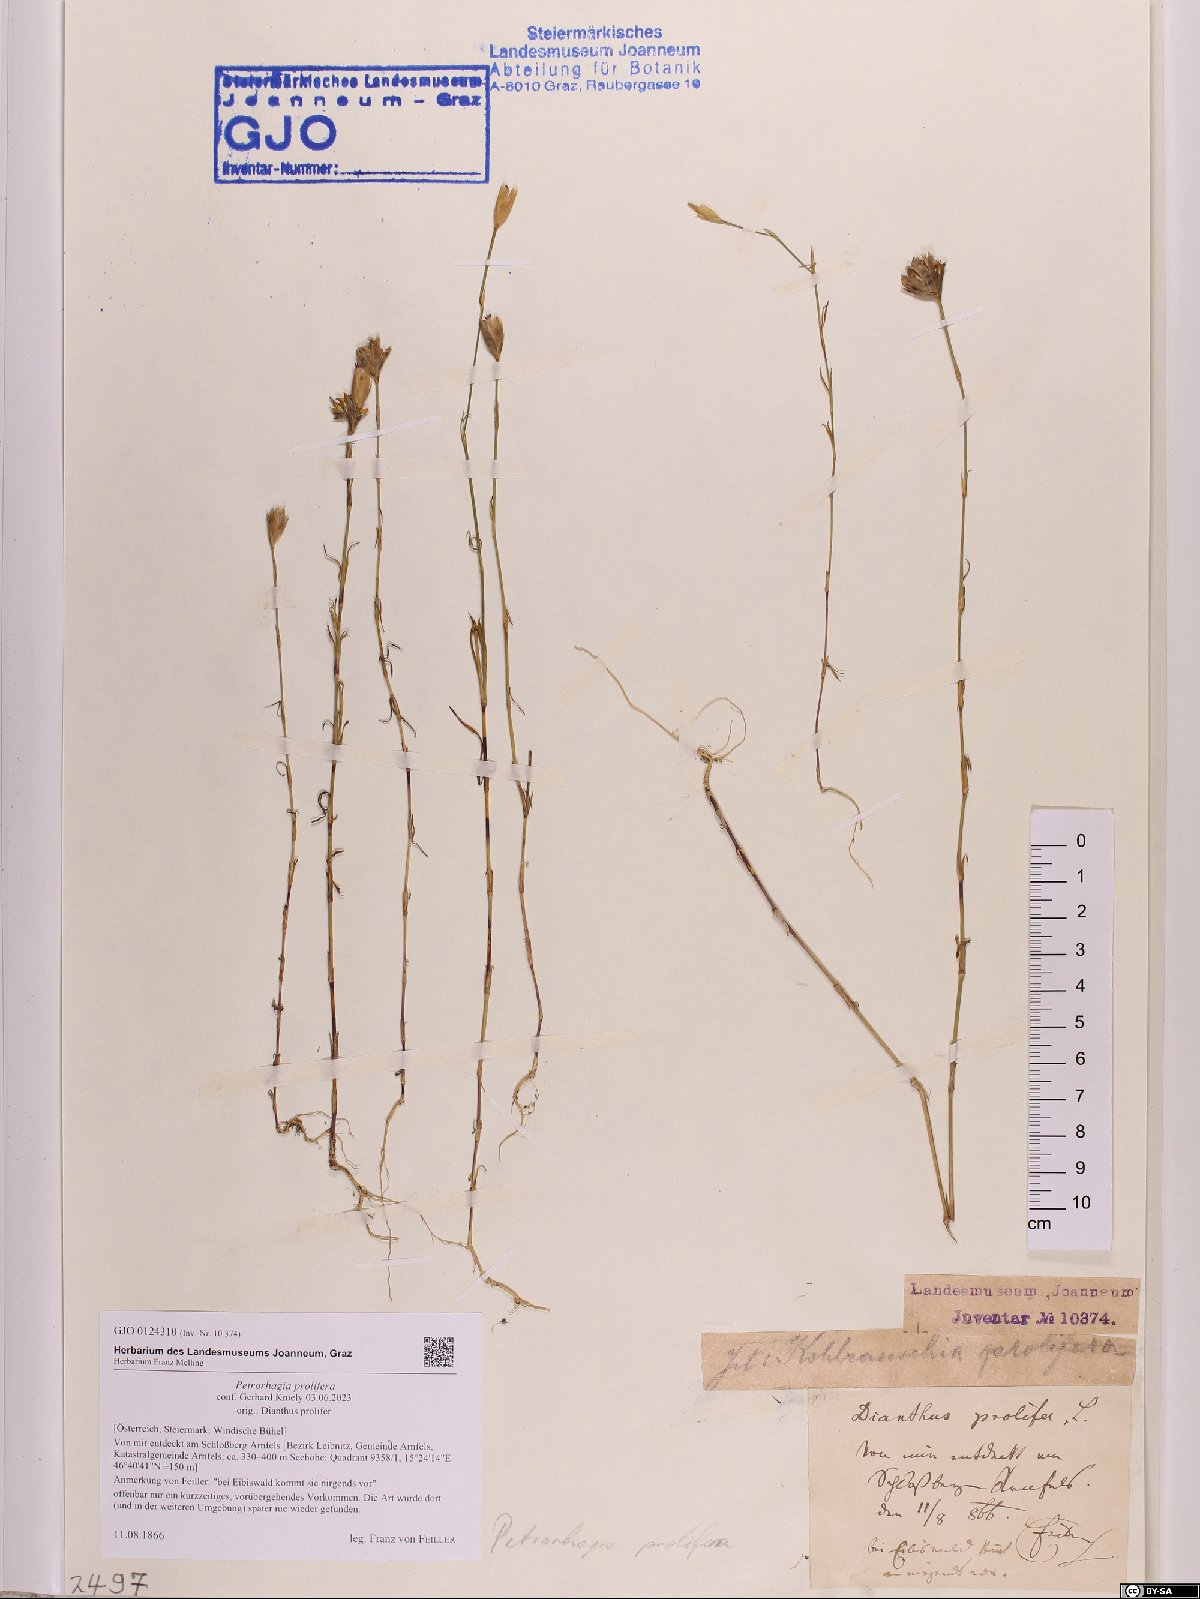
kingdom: Plantae
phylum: Tracheophyta
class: Magnoliopsida
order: Caryophyllales
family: Caryophyllaceae
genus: Petrorhagia
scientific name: Petrorhagia prolifera
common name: Proliferous pink
